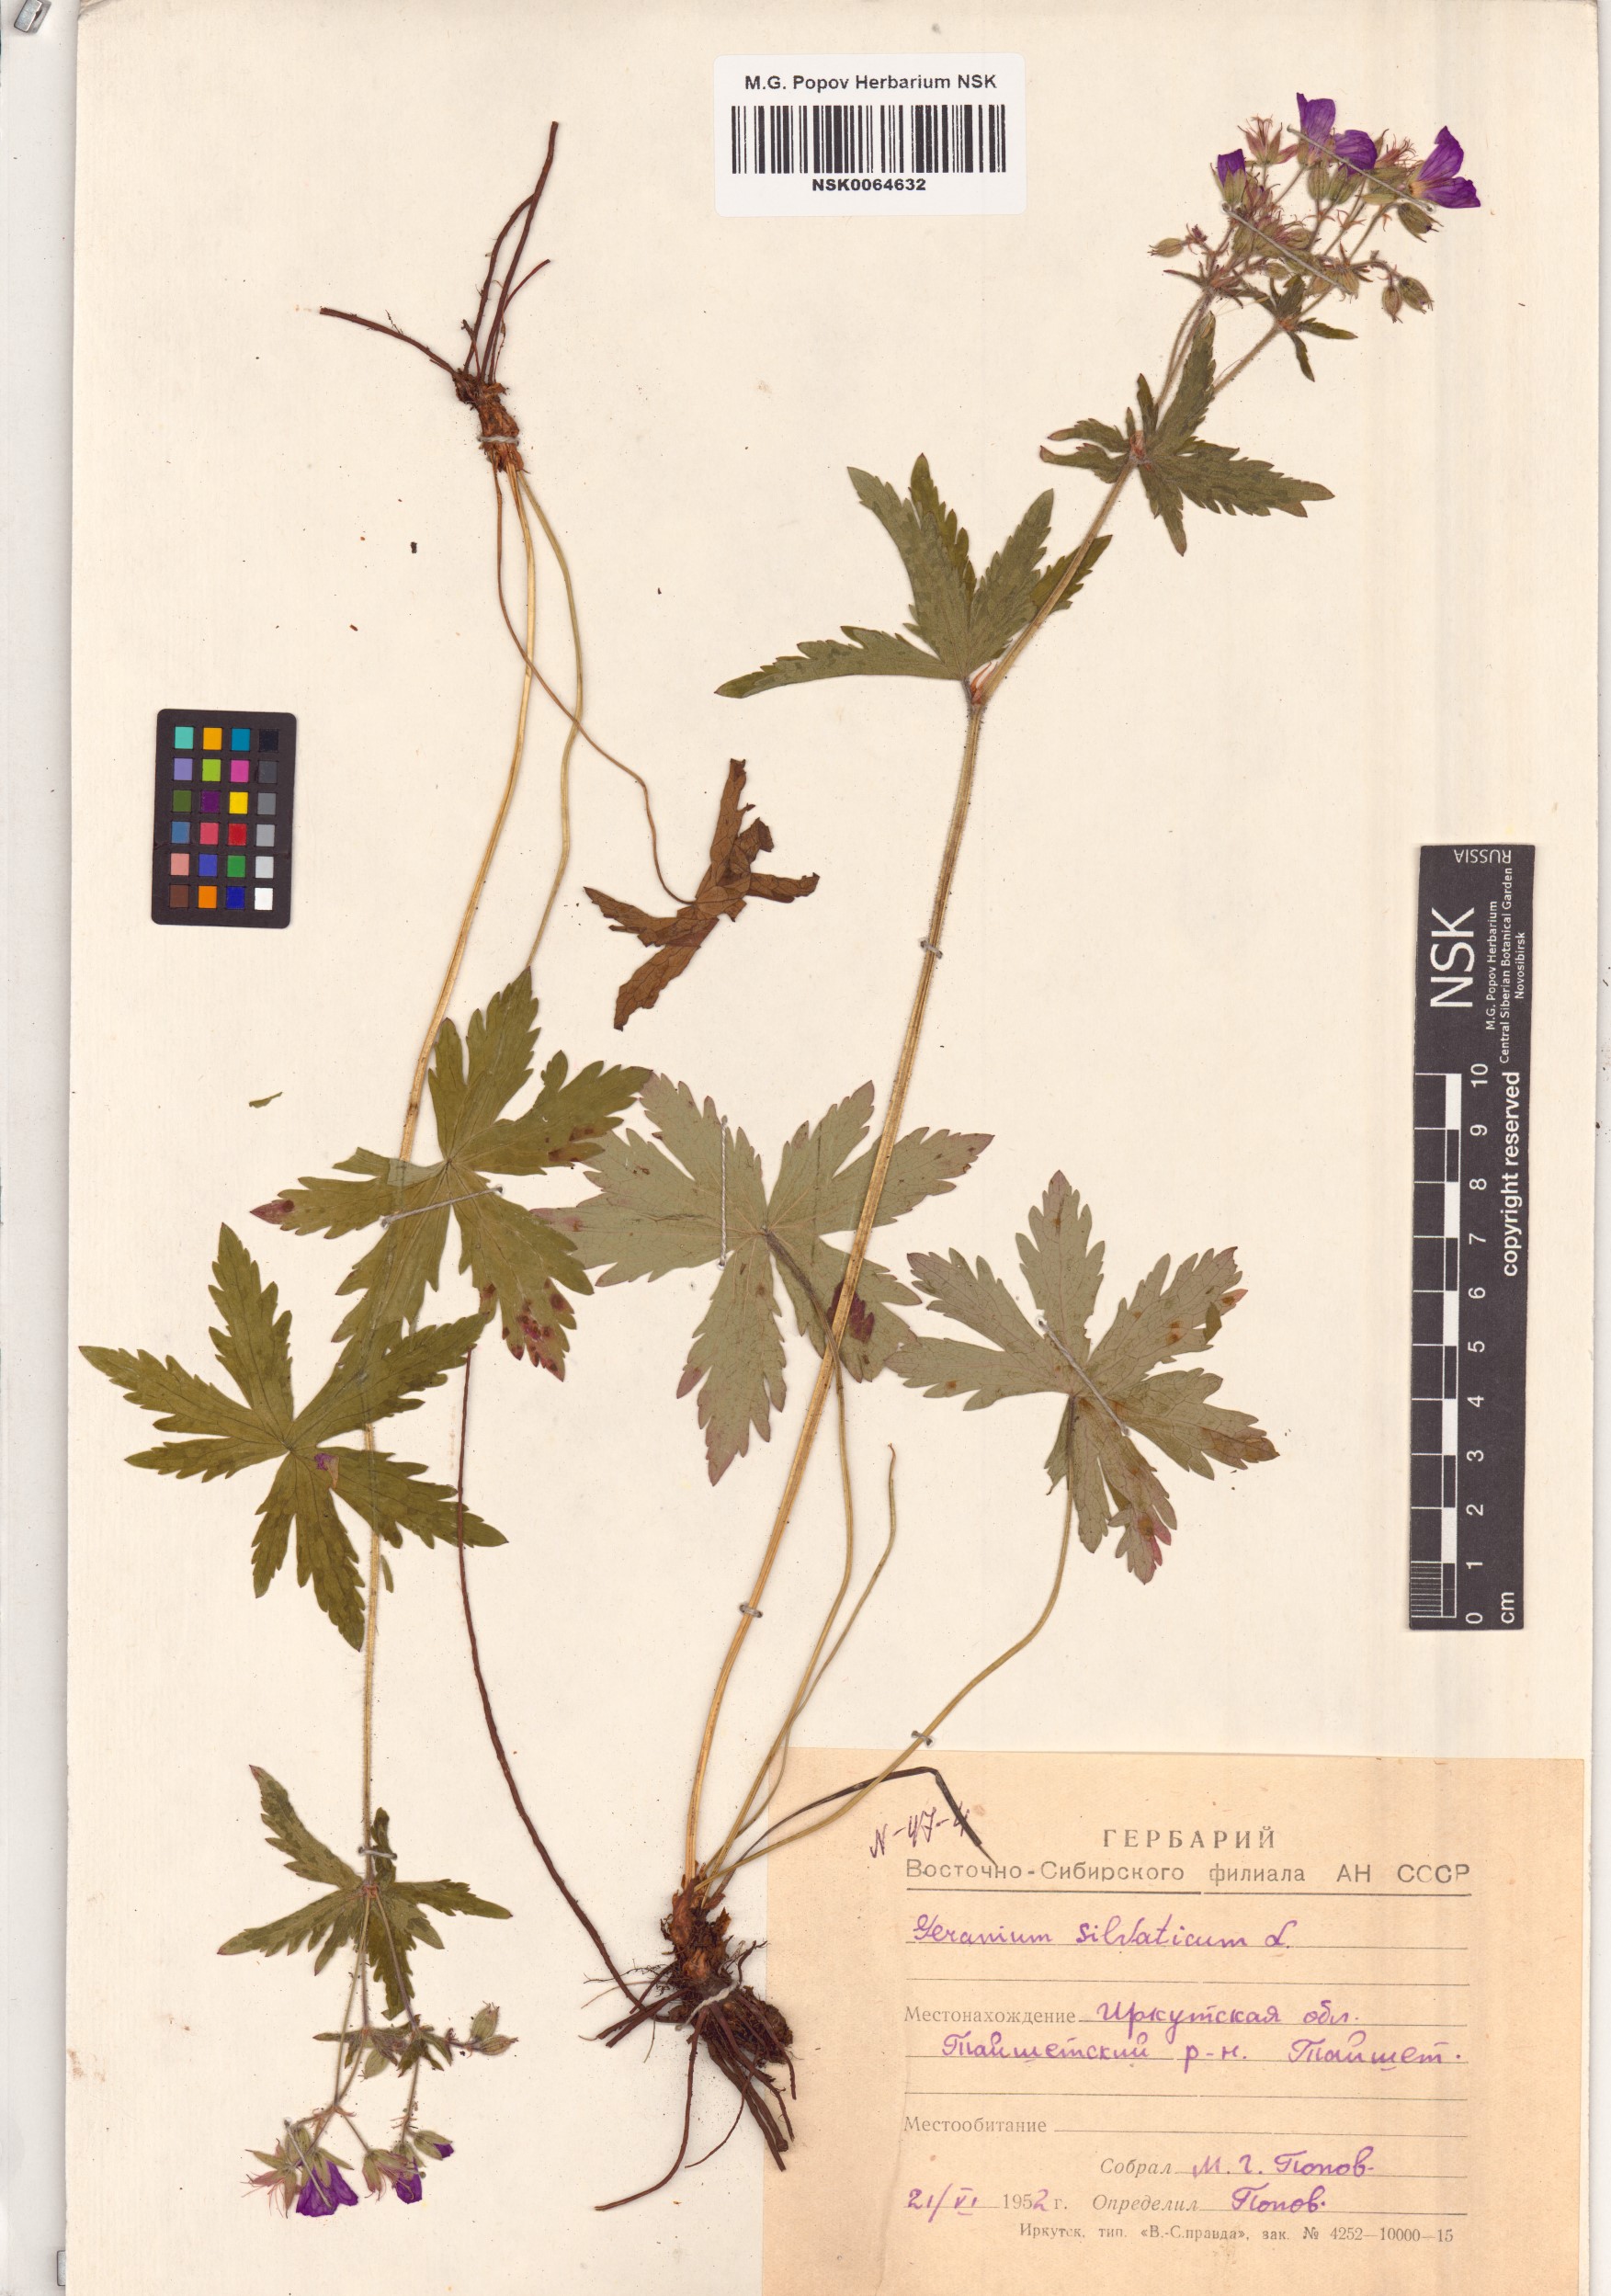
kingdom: Plantae
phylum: Tracheophyta
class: Magnoliopsida
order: Geraniales
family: Geraniaceae
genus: Geranium
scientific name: Geranium sylvaticum
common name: Wood crane's-bill
